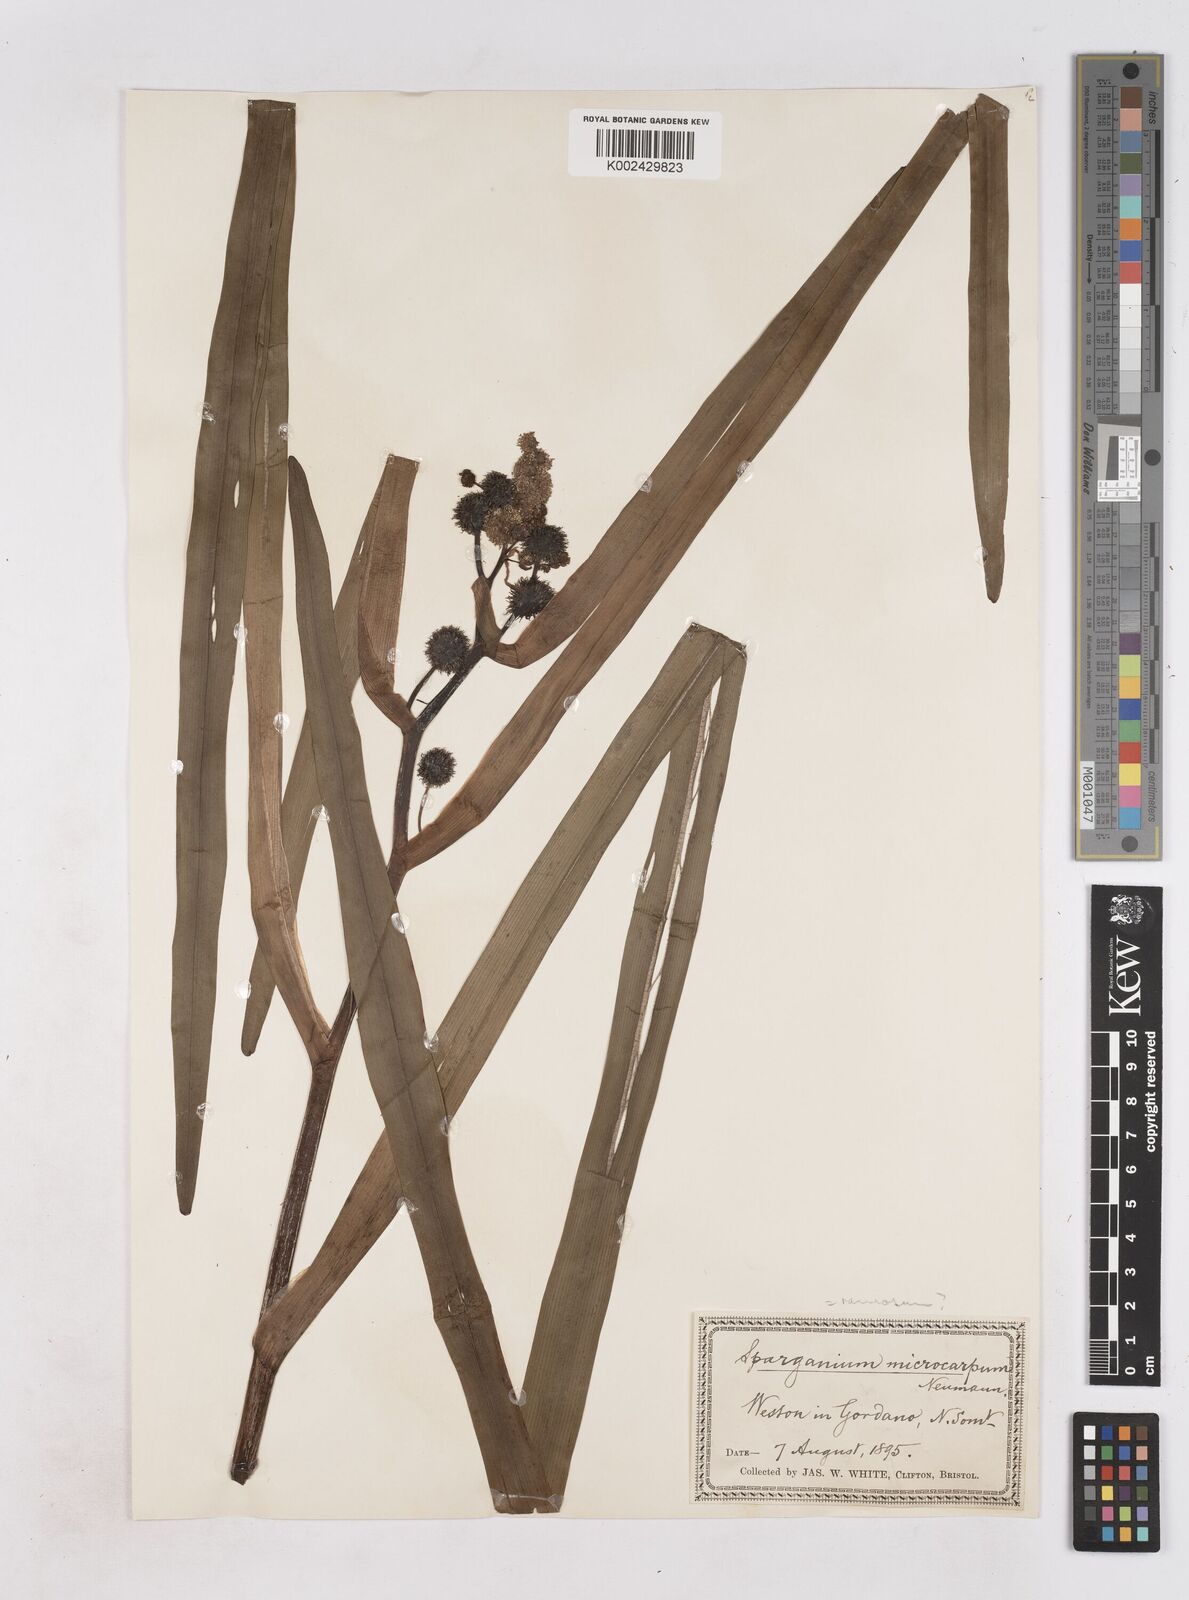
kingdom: Plantae
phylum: Tracheophyta
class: Liliopsida
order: Poales
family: Typhaceae
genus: Sparganium
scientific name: Sparganium erectum
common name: Branched bur-reed
